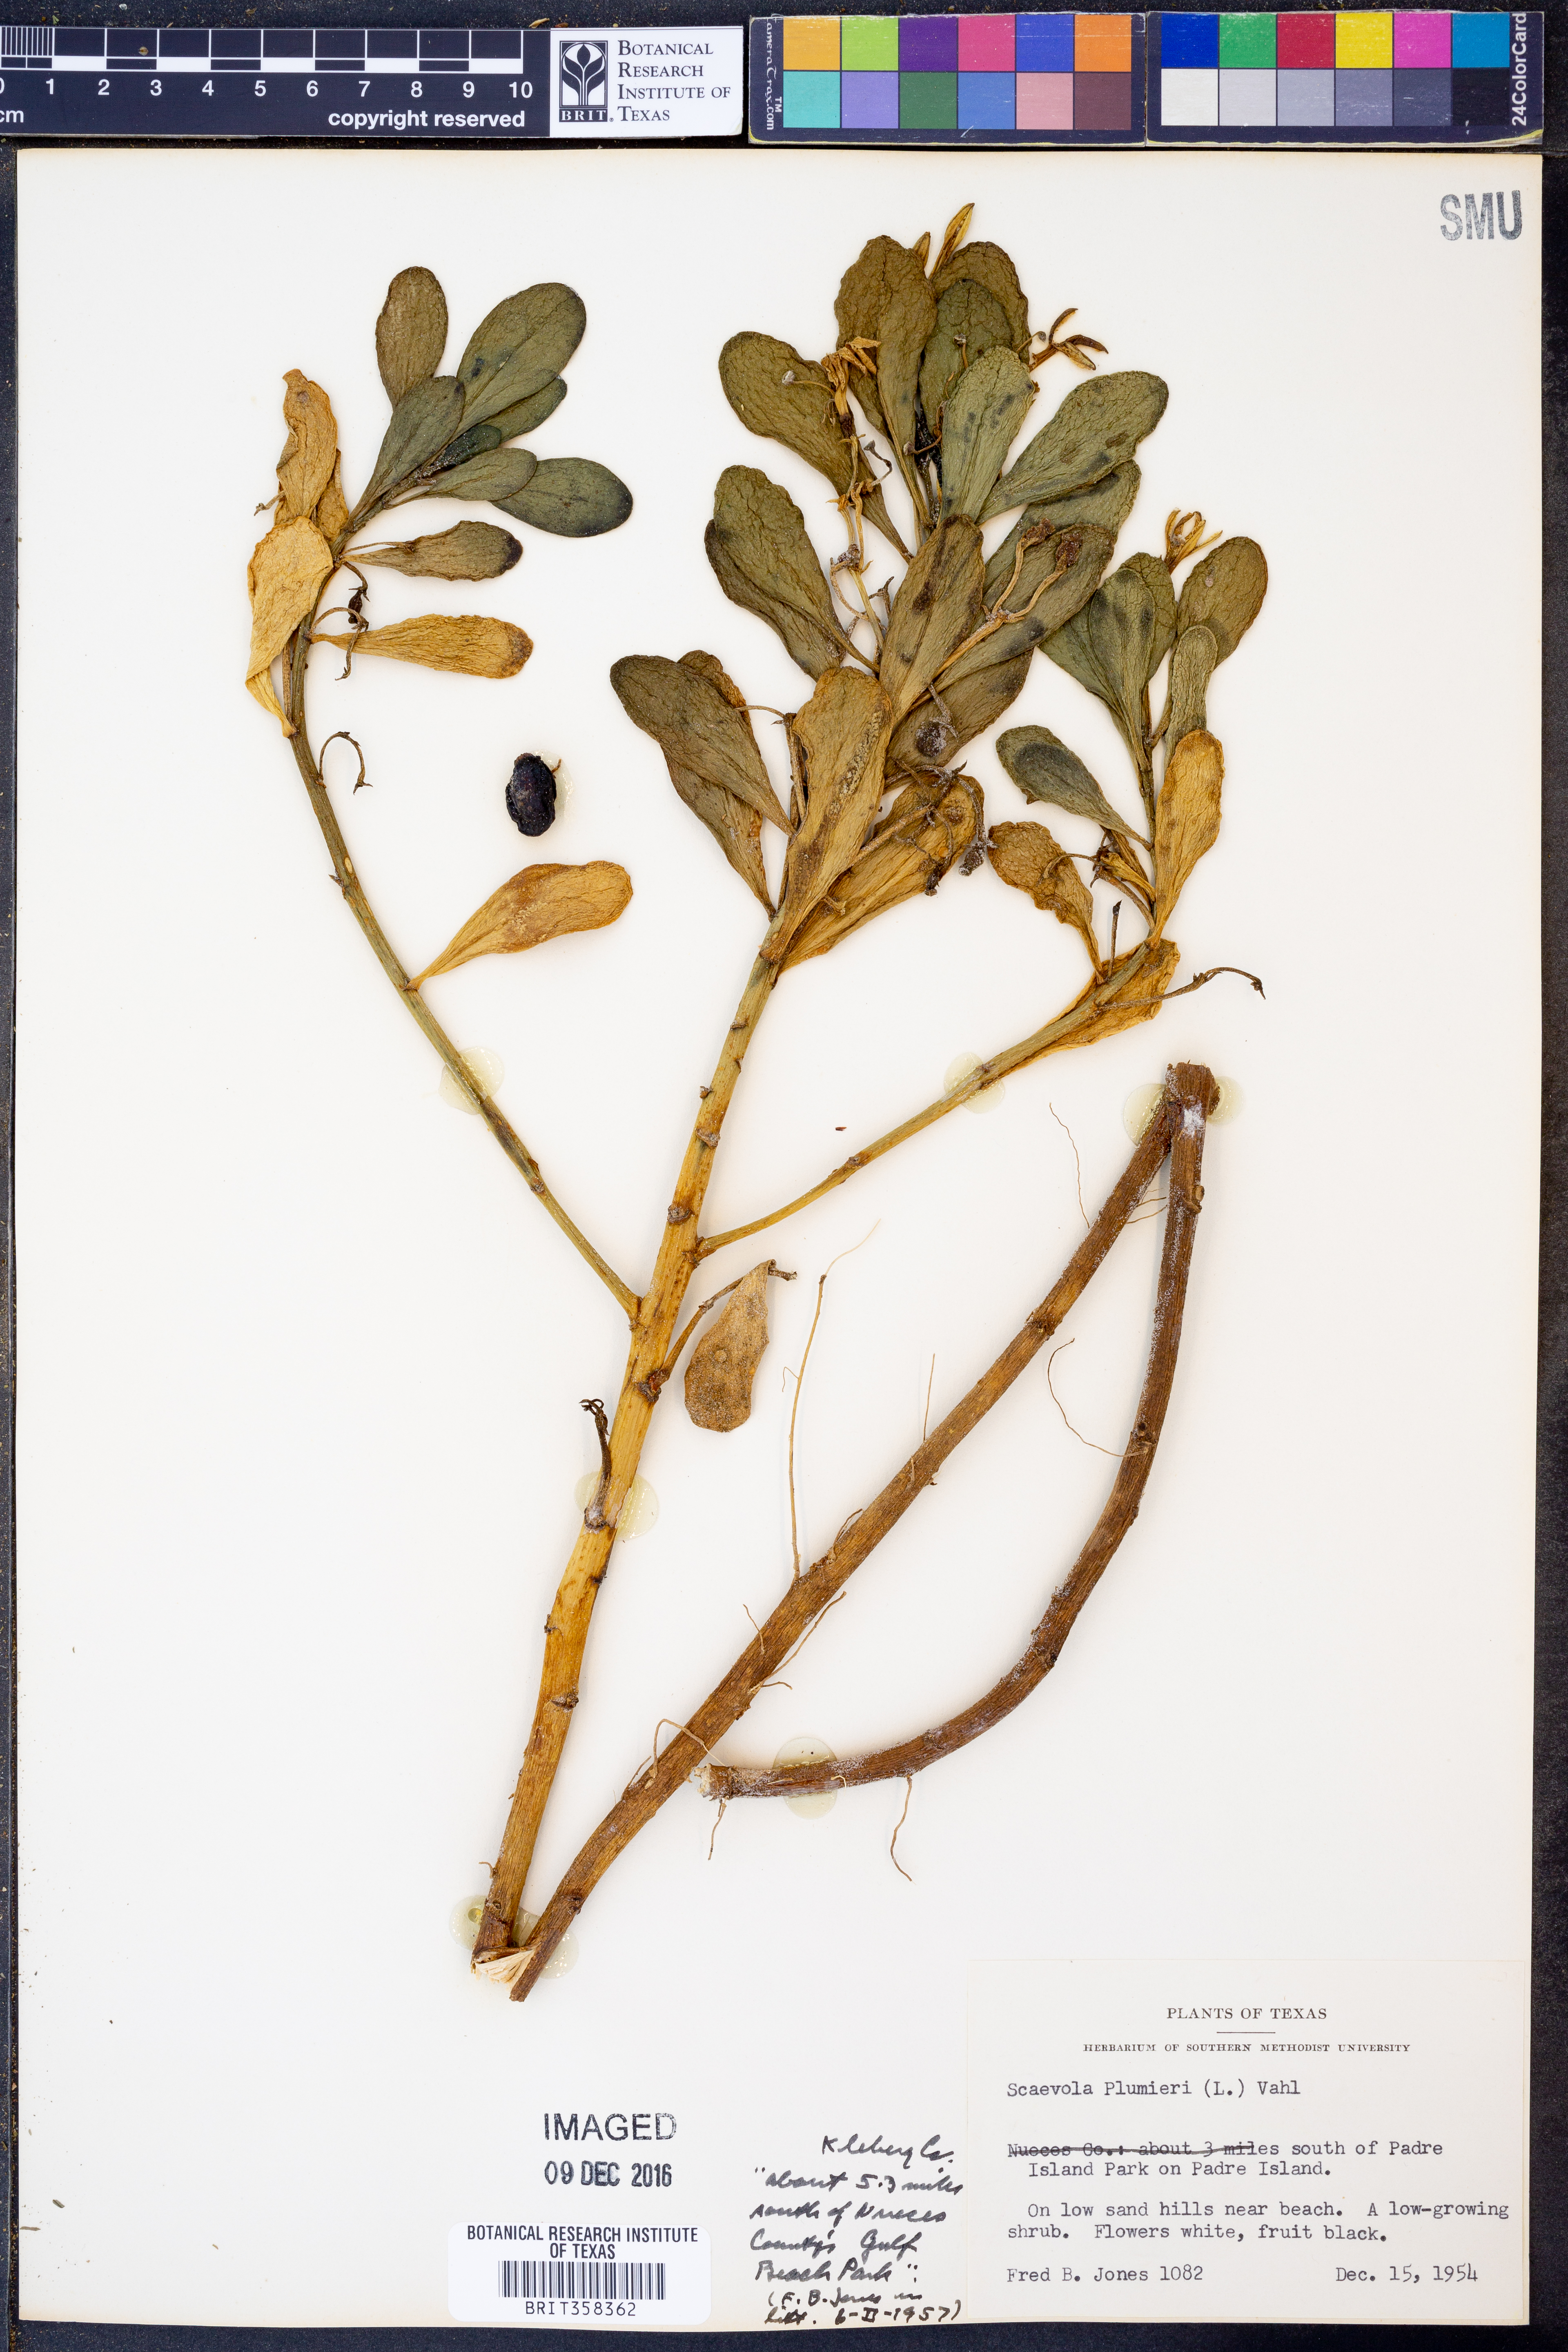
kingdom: Plantae
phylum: Tracheophyta
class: Magnoliopsida
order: Asterales
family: Goodeniaceae
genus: Scaevola
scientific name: Scaevola plumieri
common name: Gull feed
